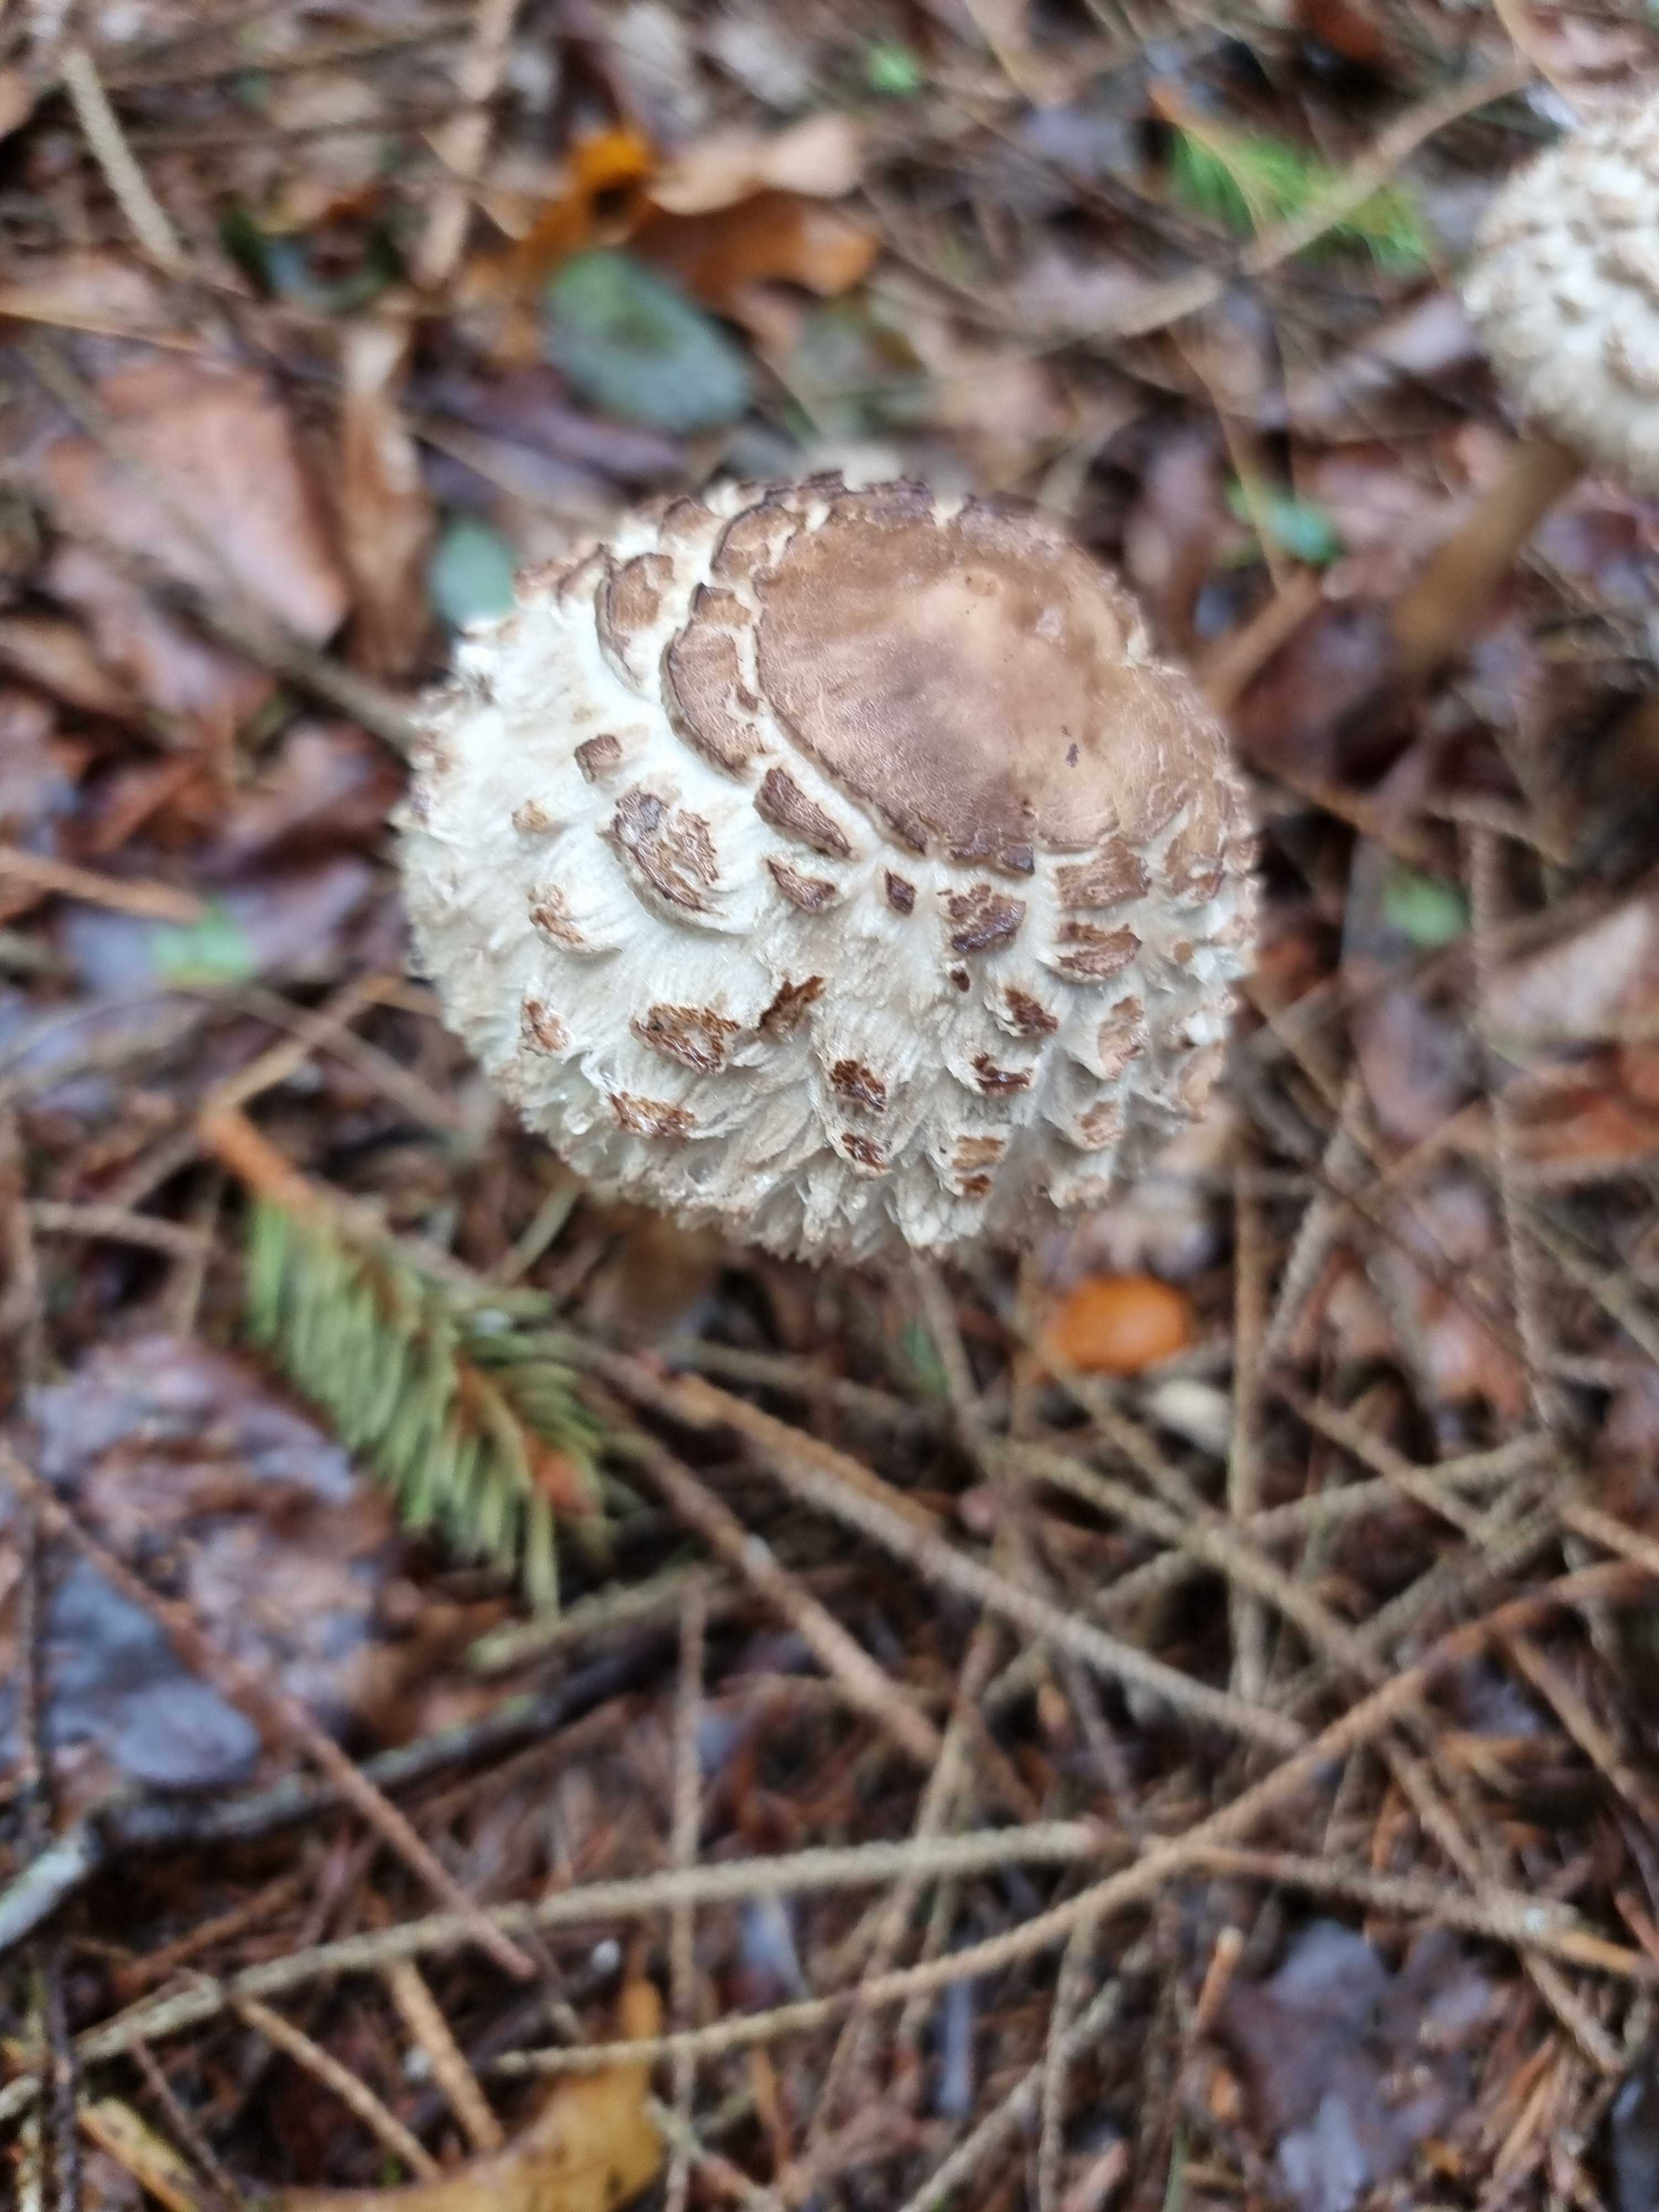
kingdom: Fungi
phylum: Basidiomycota
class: Agaricomycetes
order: Agaricales
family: Agaricaceae
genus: Chlorophyllum
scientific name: Chlorophyllum olivieri
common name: almindelig rabarberhat
